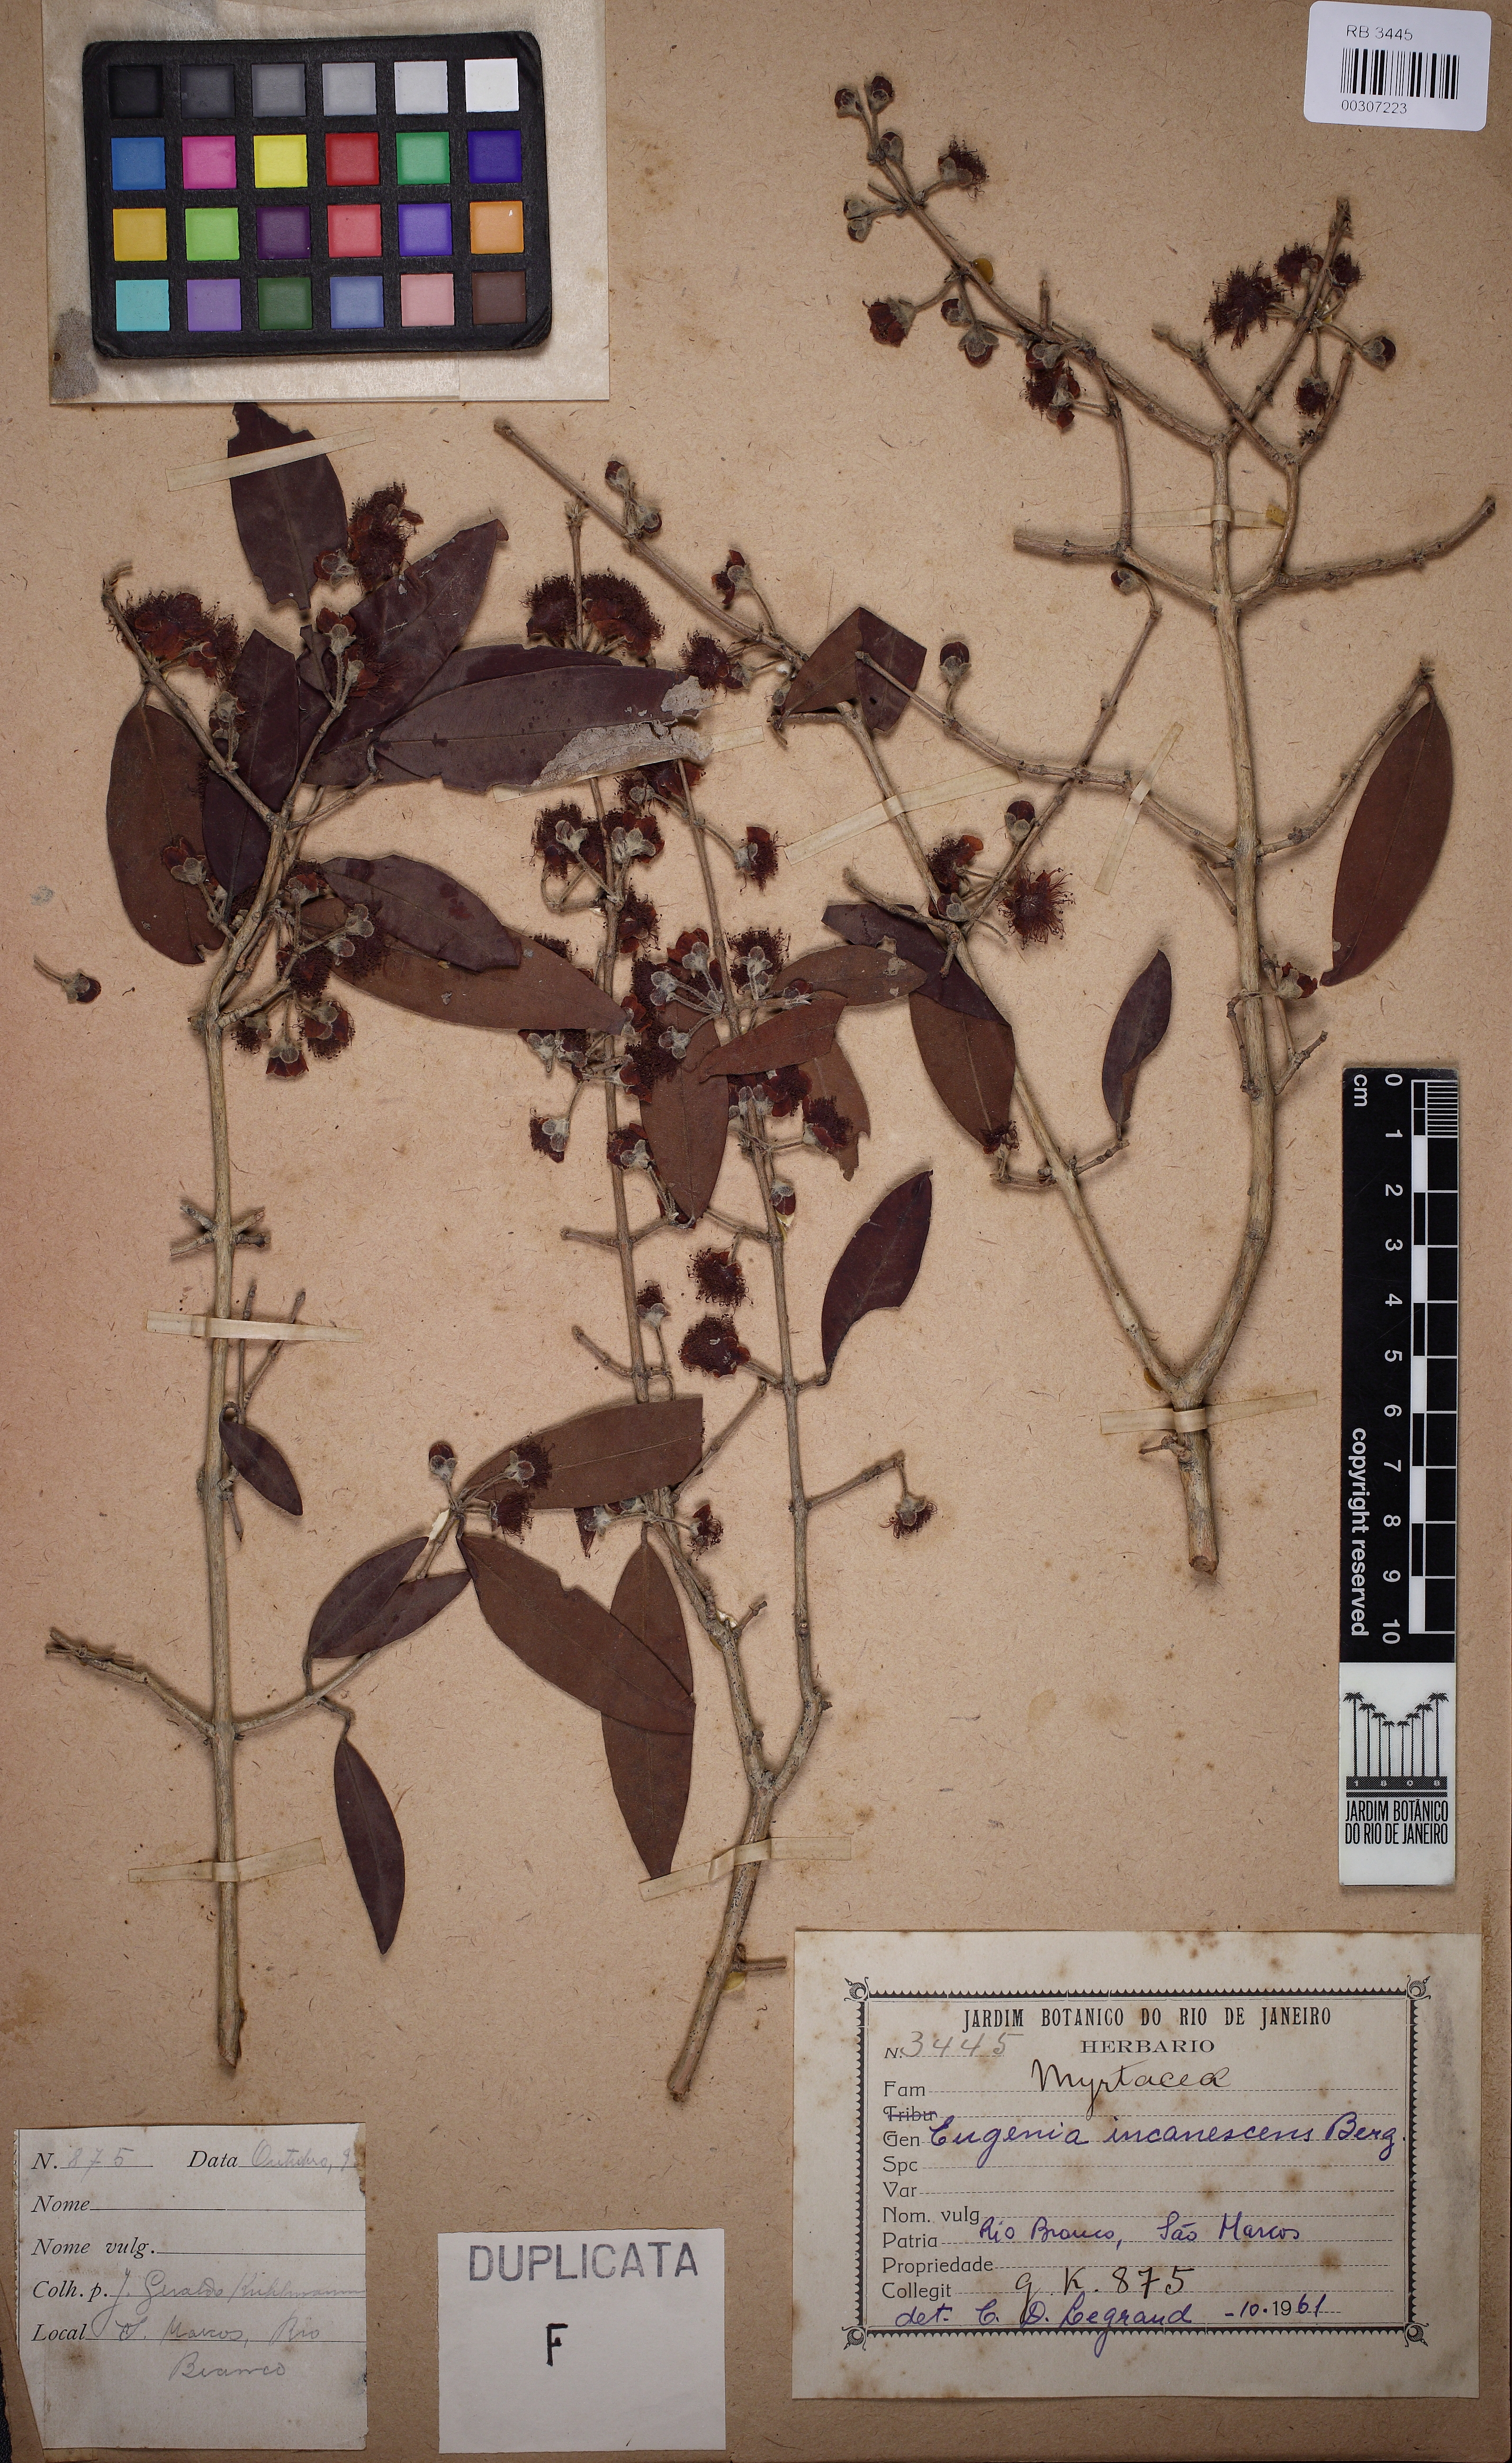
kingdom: Plantae
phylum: Tracheophyta
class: Magnoliopsida
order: Myrtales
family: Myrtaceae
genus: Eugenia
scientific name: Eugenia incanescens
